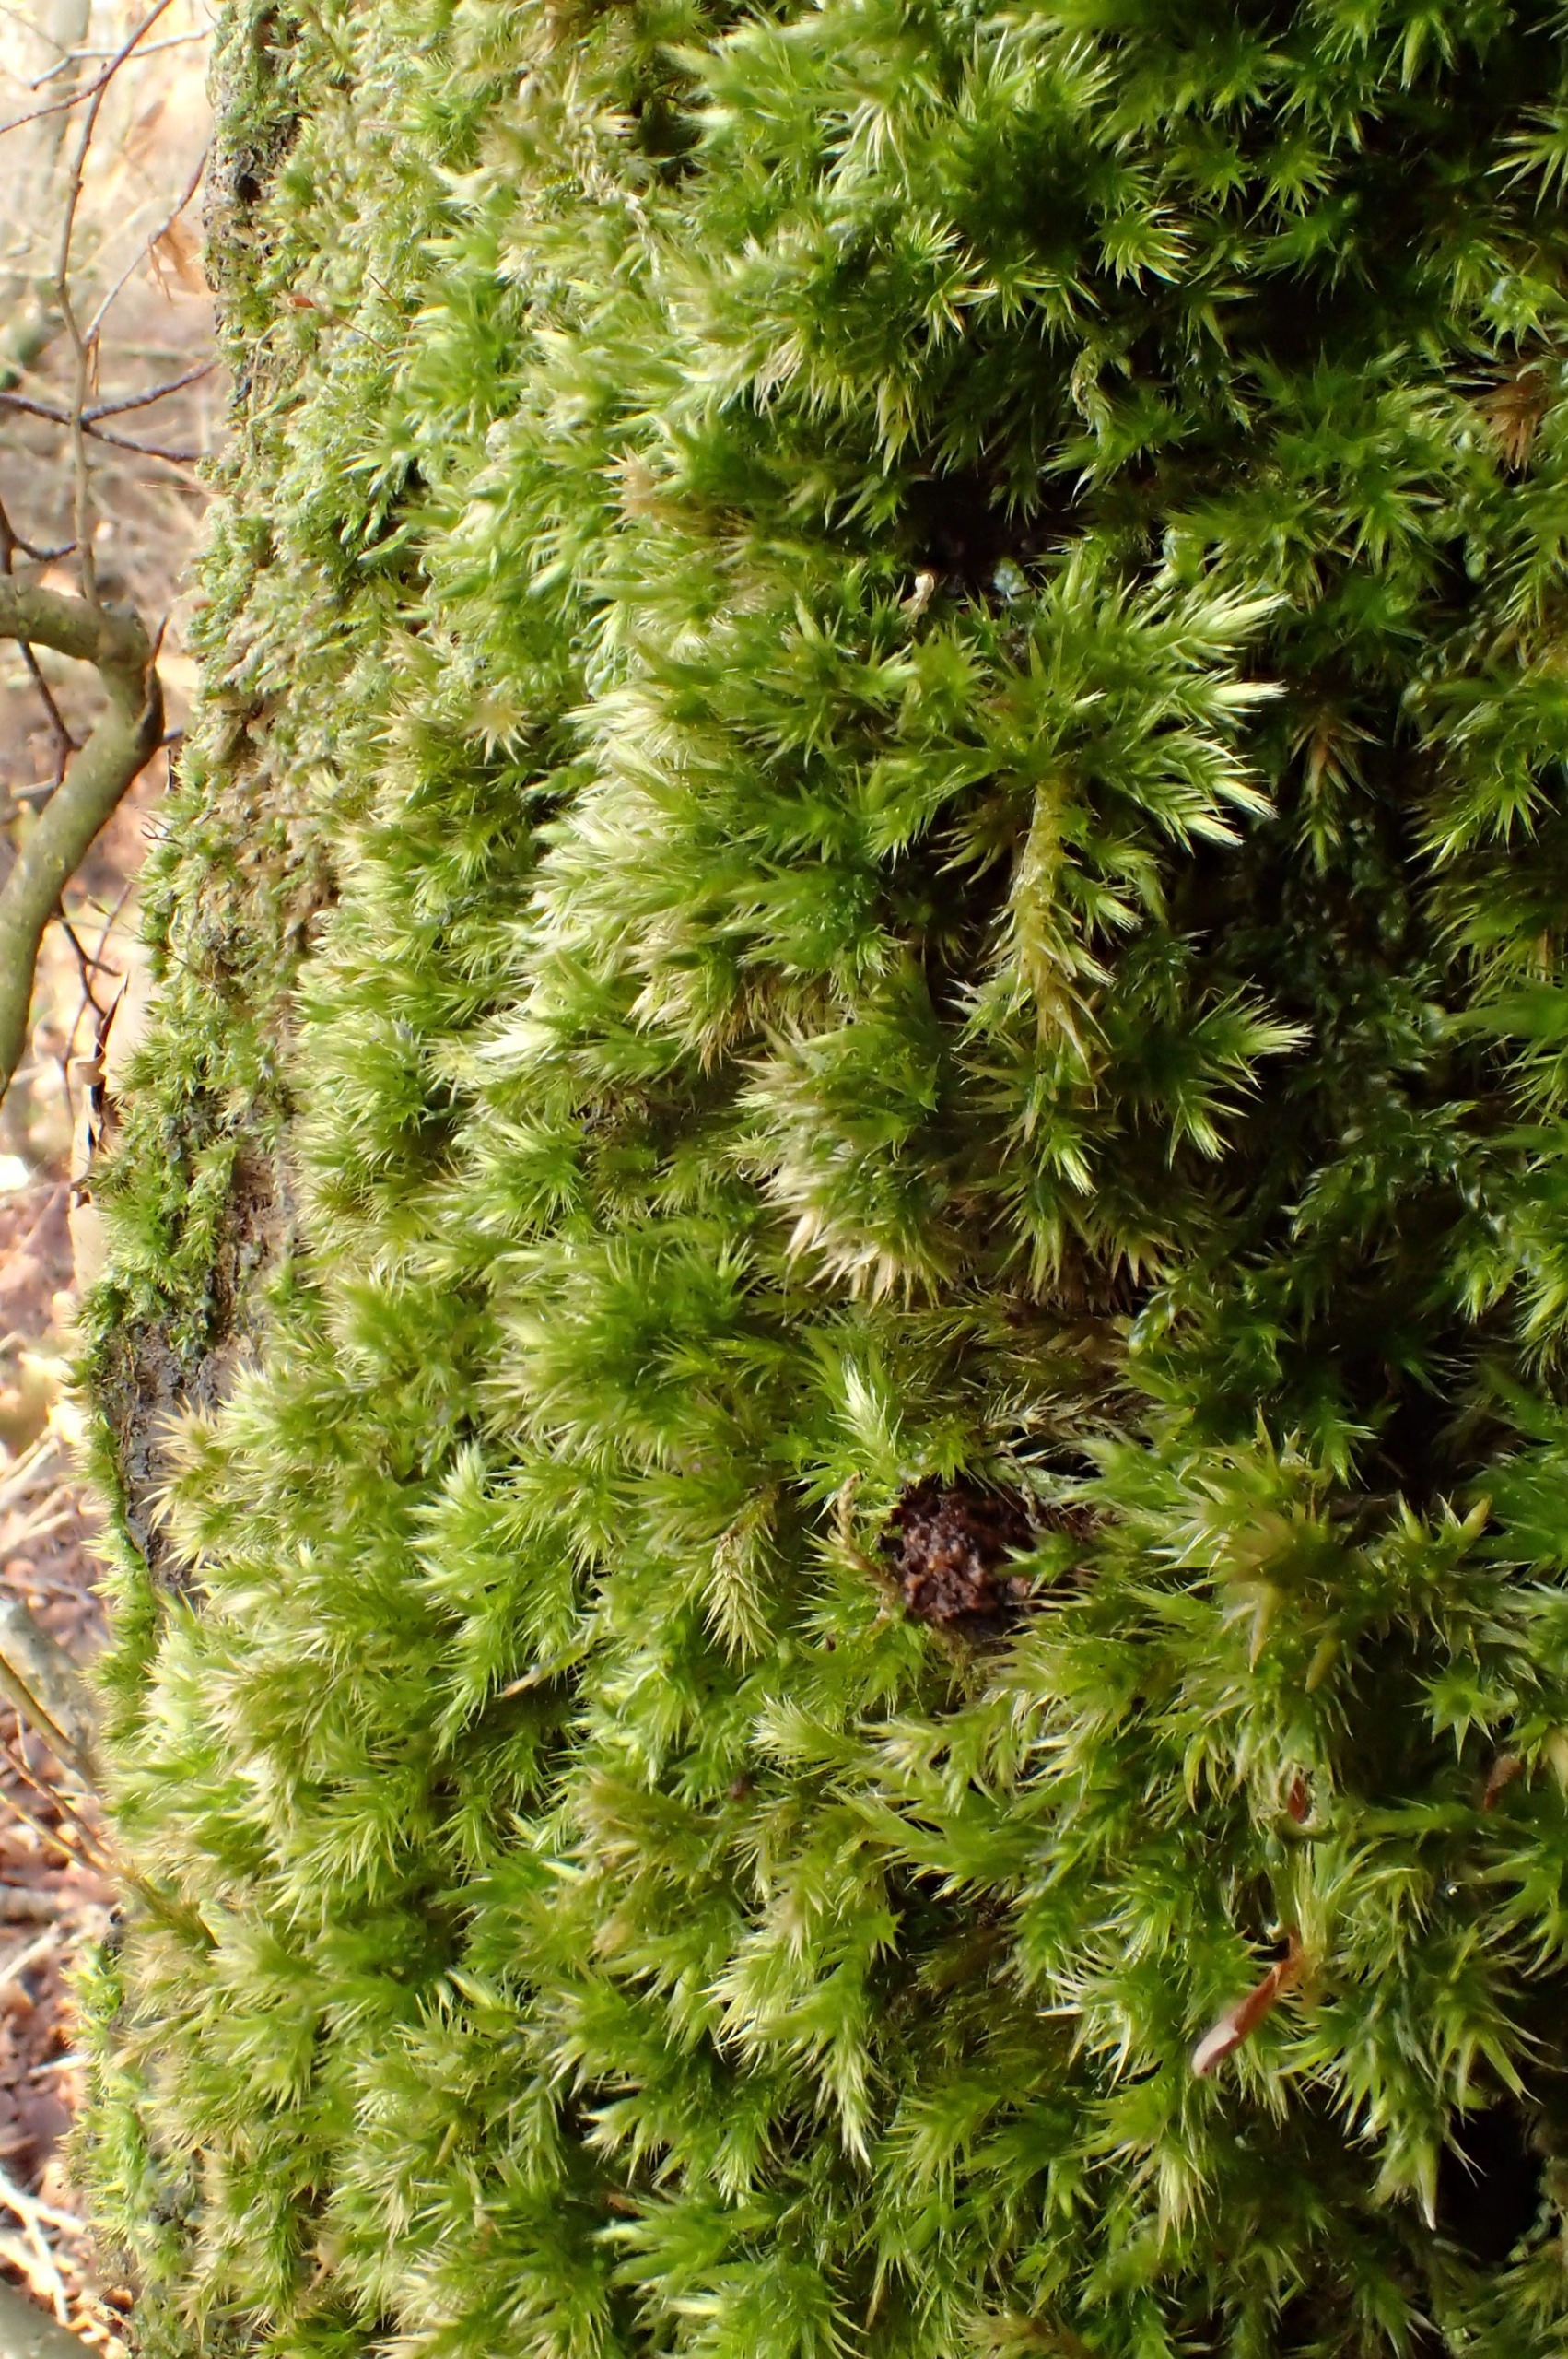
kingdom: Plantae
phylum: Bryophyta
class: Bryopsida
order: Hypnales
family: Brachytheciaceae
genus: Homalothecium
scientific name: Homalothecium sericeum
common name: Krybende silkemos
